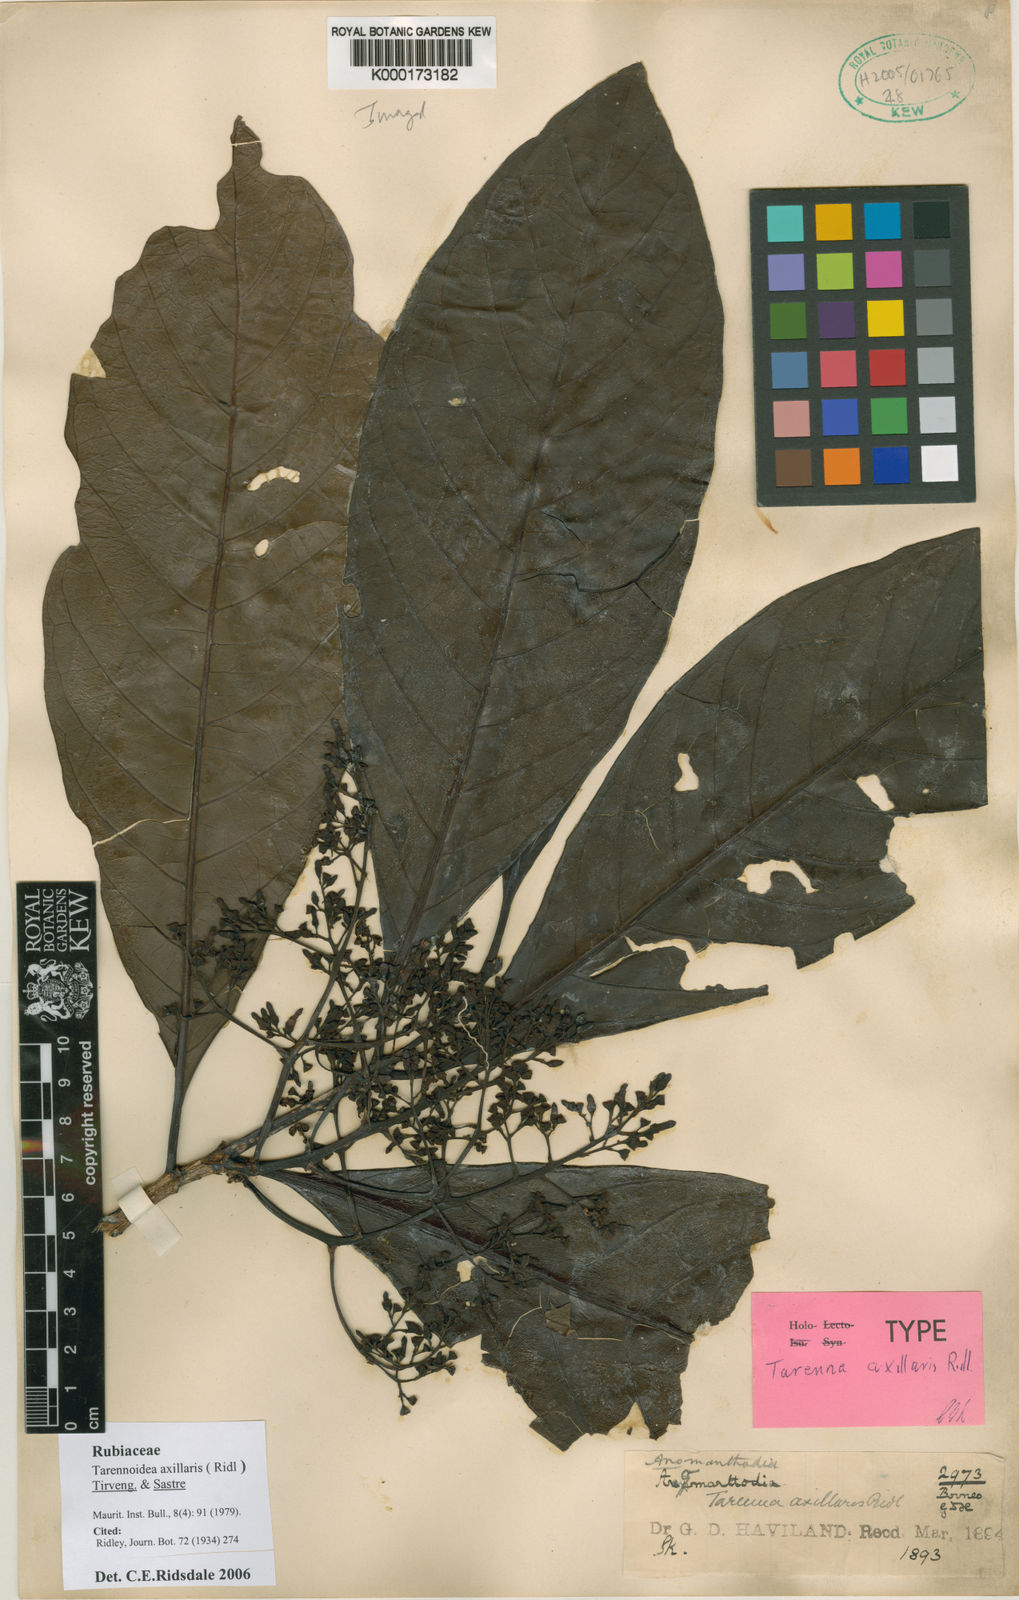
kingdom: Plantae
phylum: Tracheophyta
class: Magnoliopsida
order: Gentianales
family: Rubiaceae
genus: Tarennoidea
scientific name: Tarennoidea axillaris
